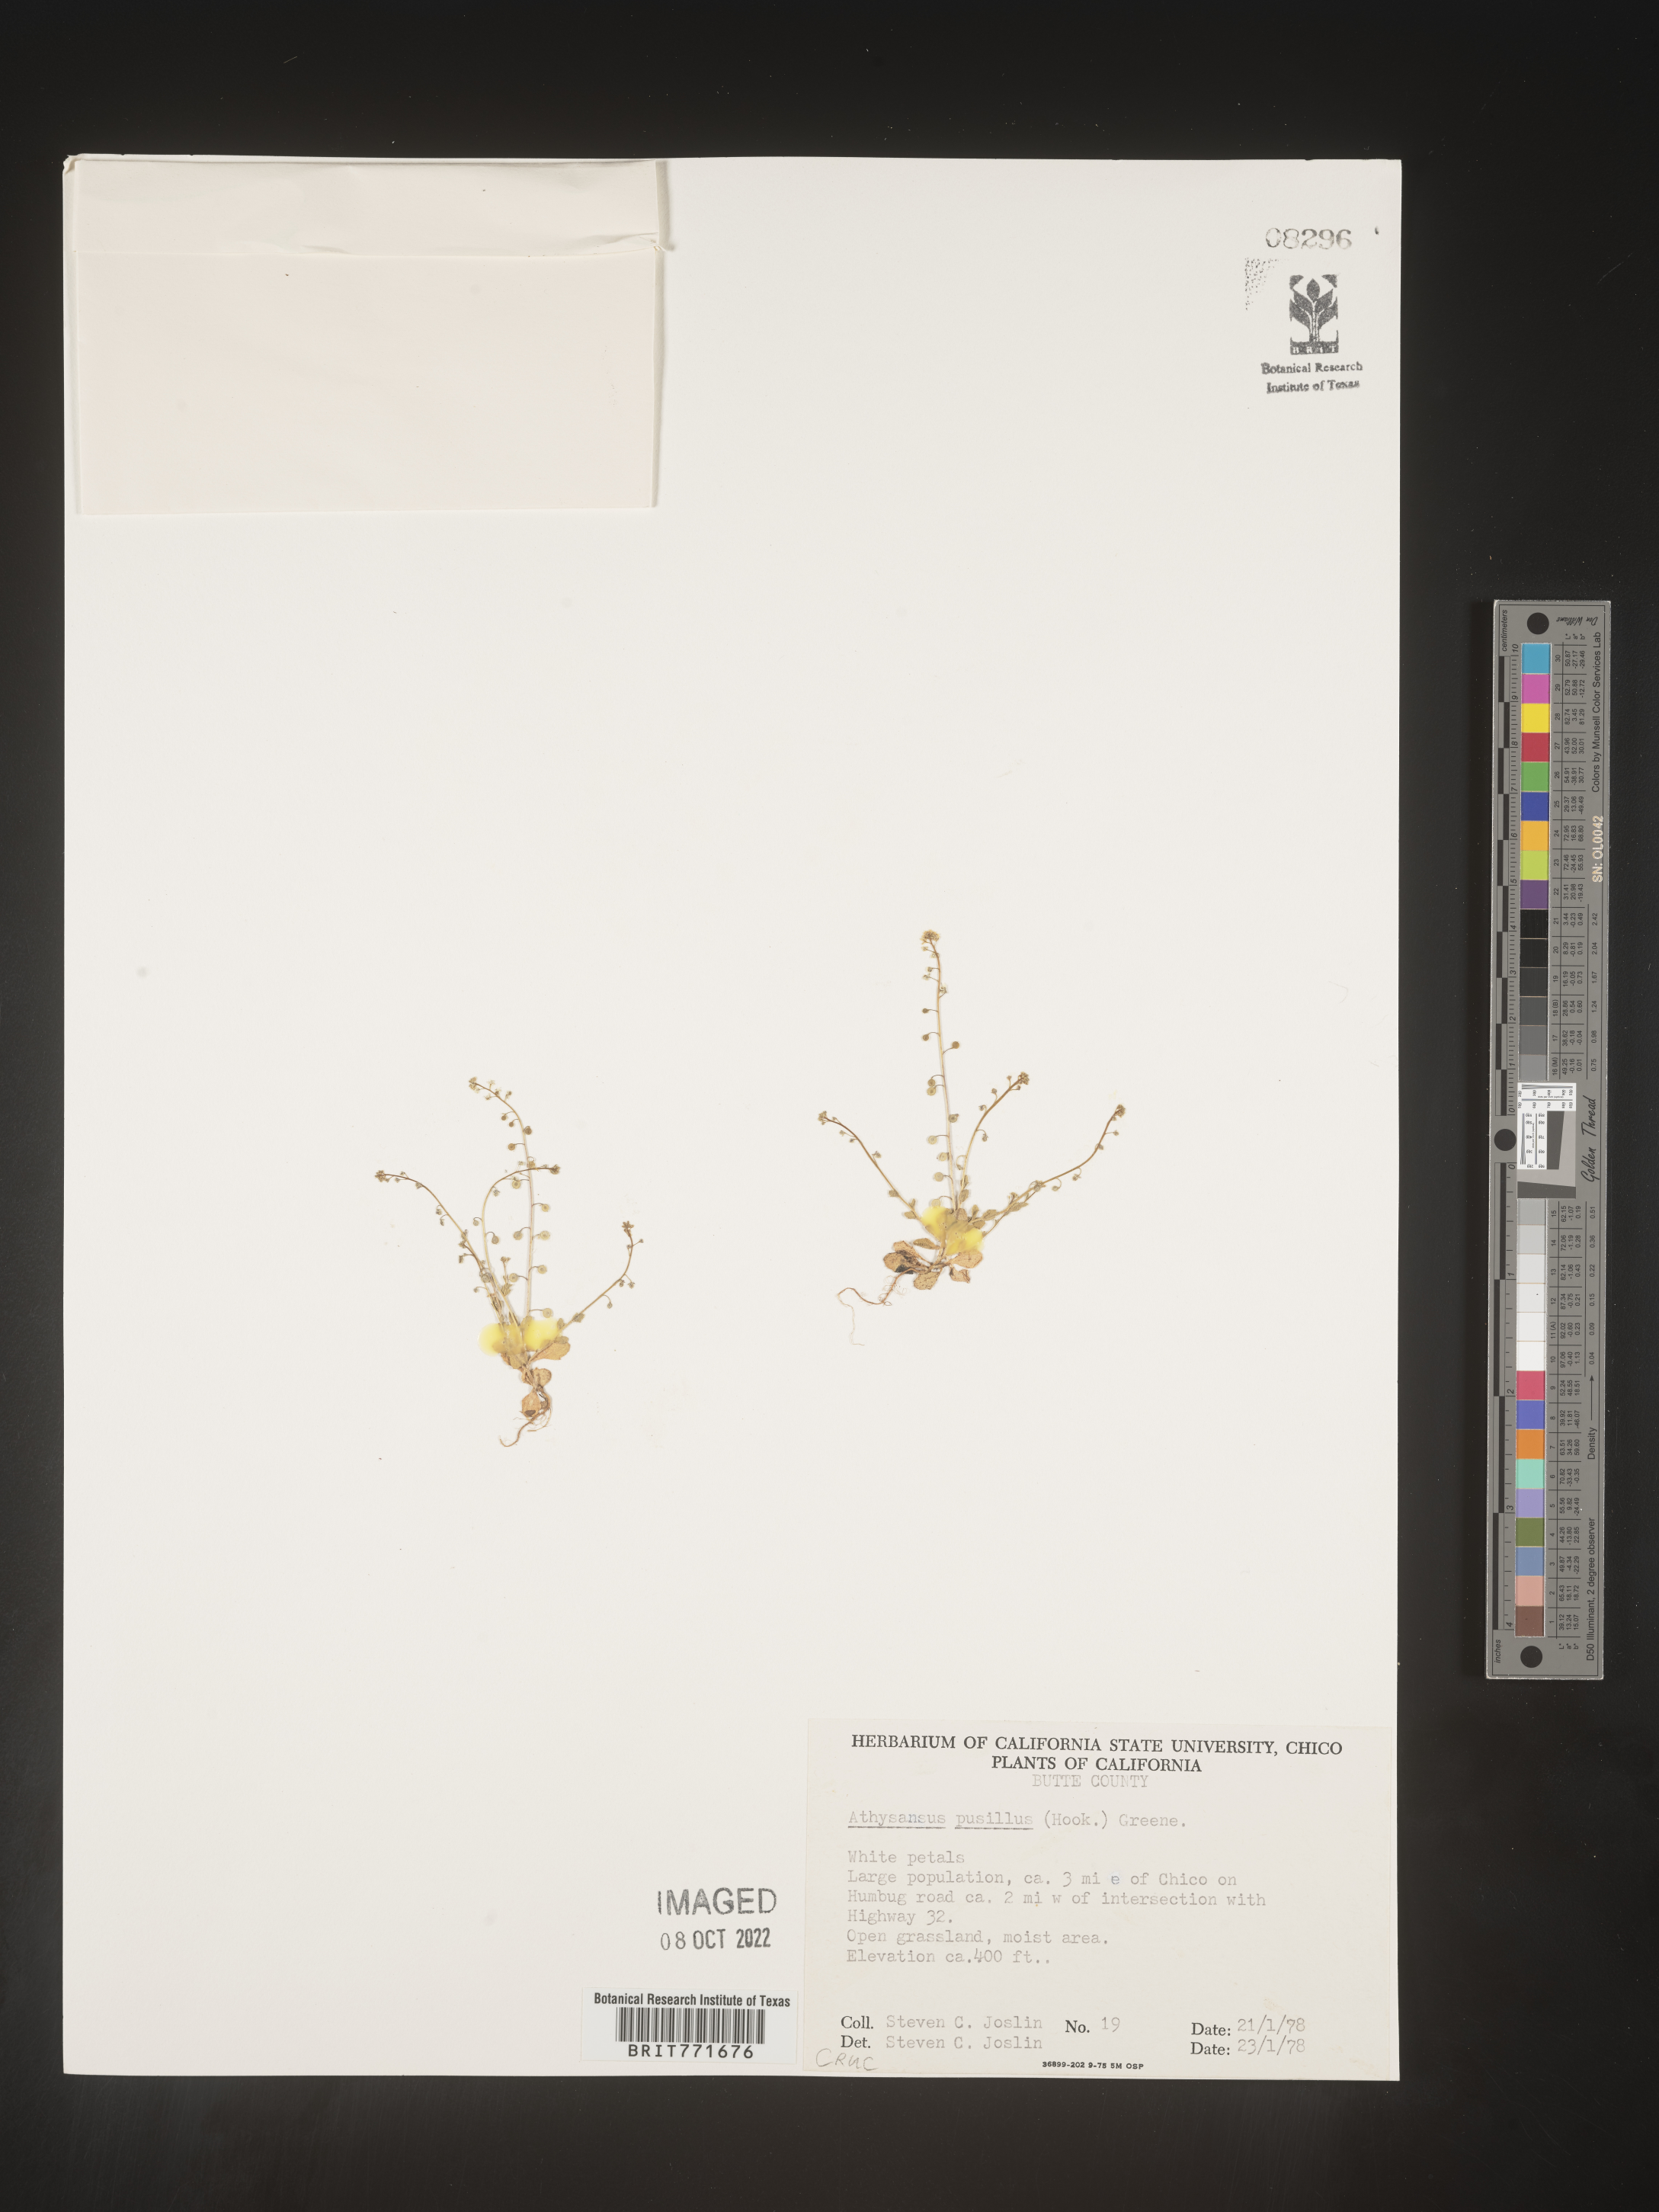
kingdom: Plantae
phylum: Tracheophyta
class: Magnoliopsida
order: Brassicales
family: Brassicaceae
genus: Athysanus
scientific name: Athysanus
